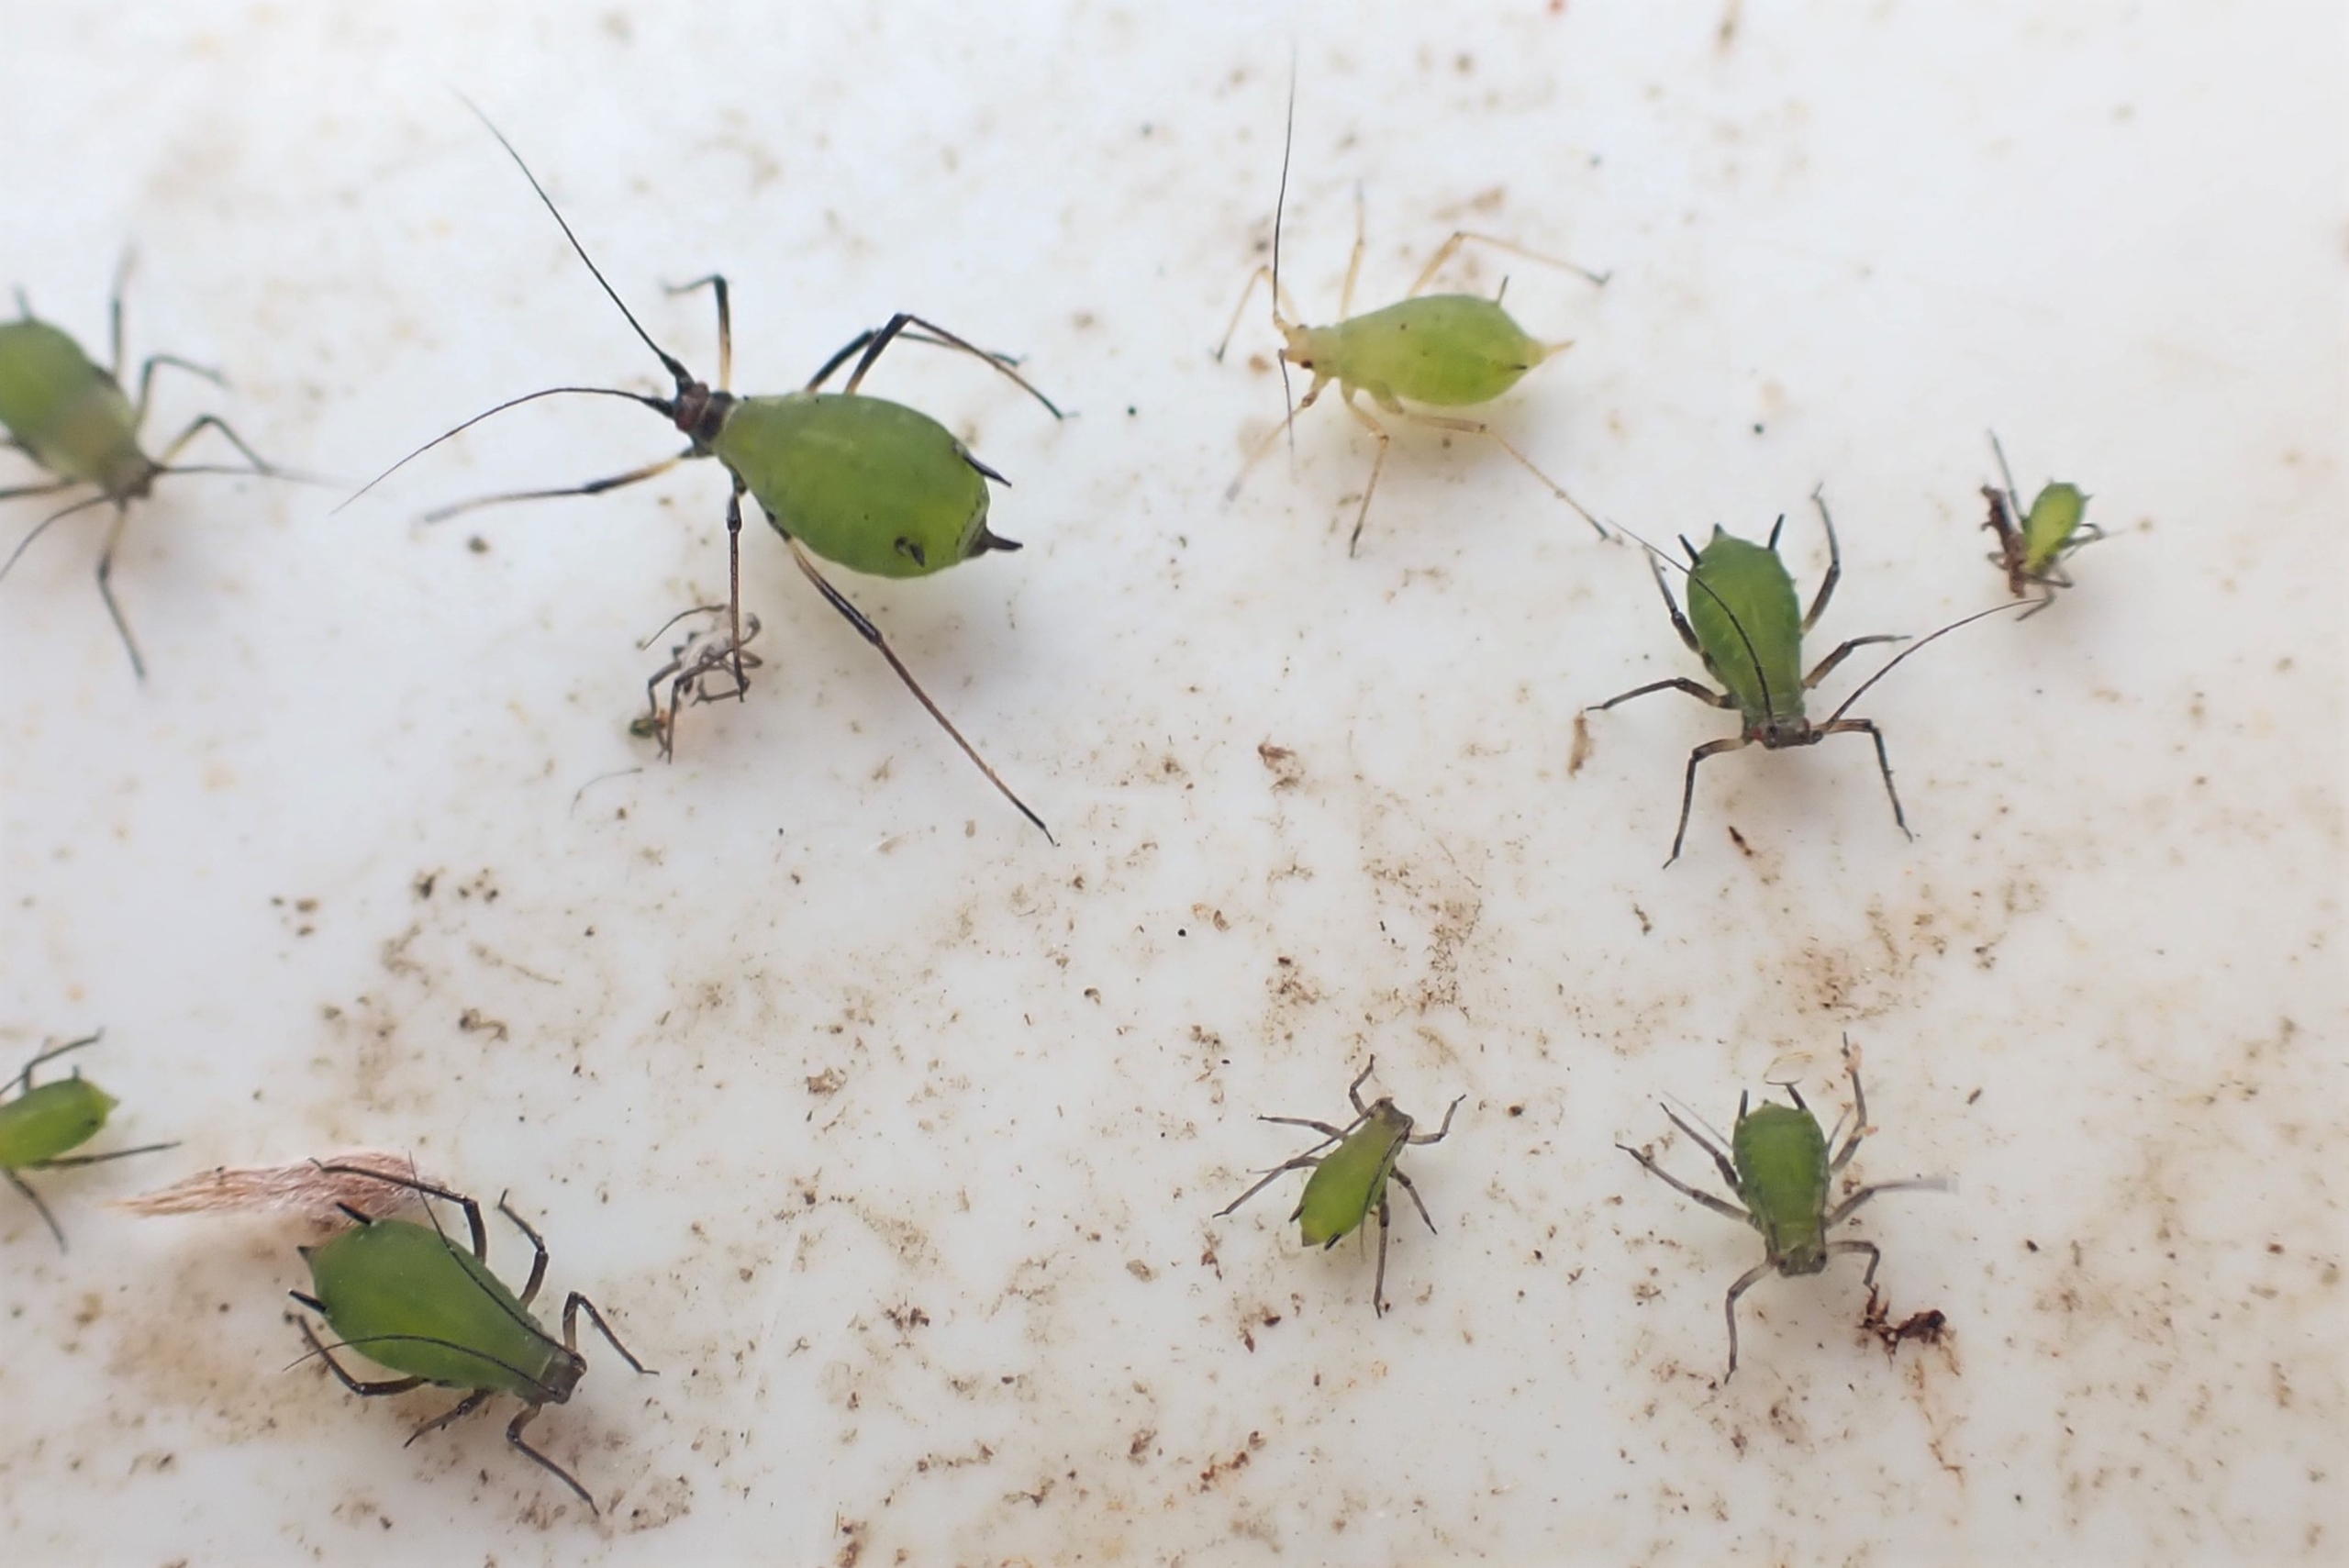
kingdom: Animalia
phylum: Arthropoda
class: Insecta
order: Hemiptera
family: Aphididae
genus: Megoura
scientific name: Megoura viciae
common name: Vikkebladlus
